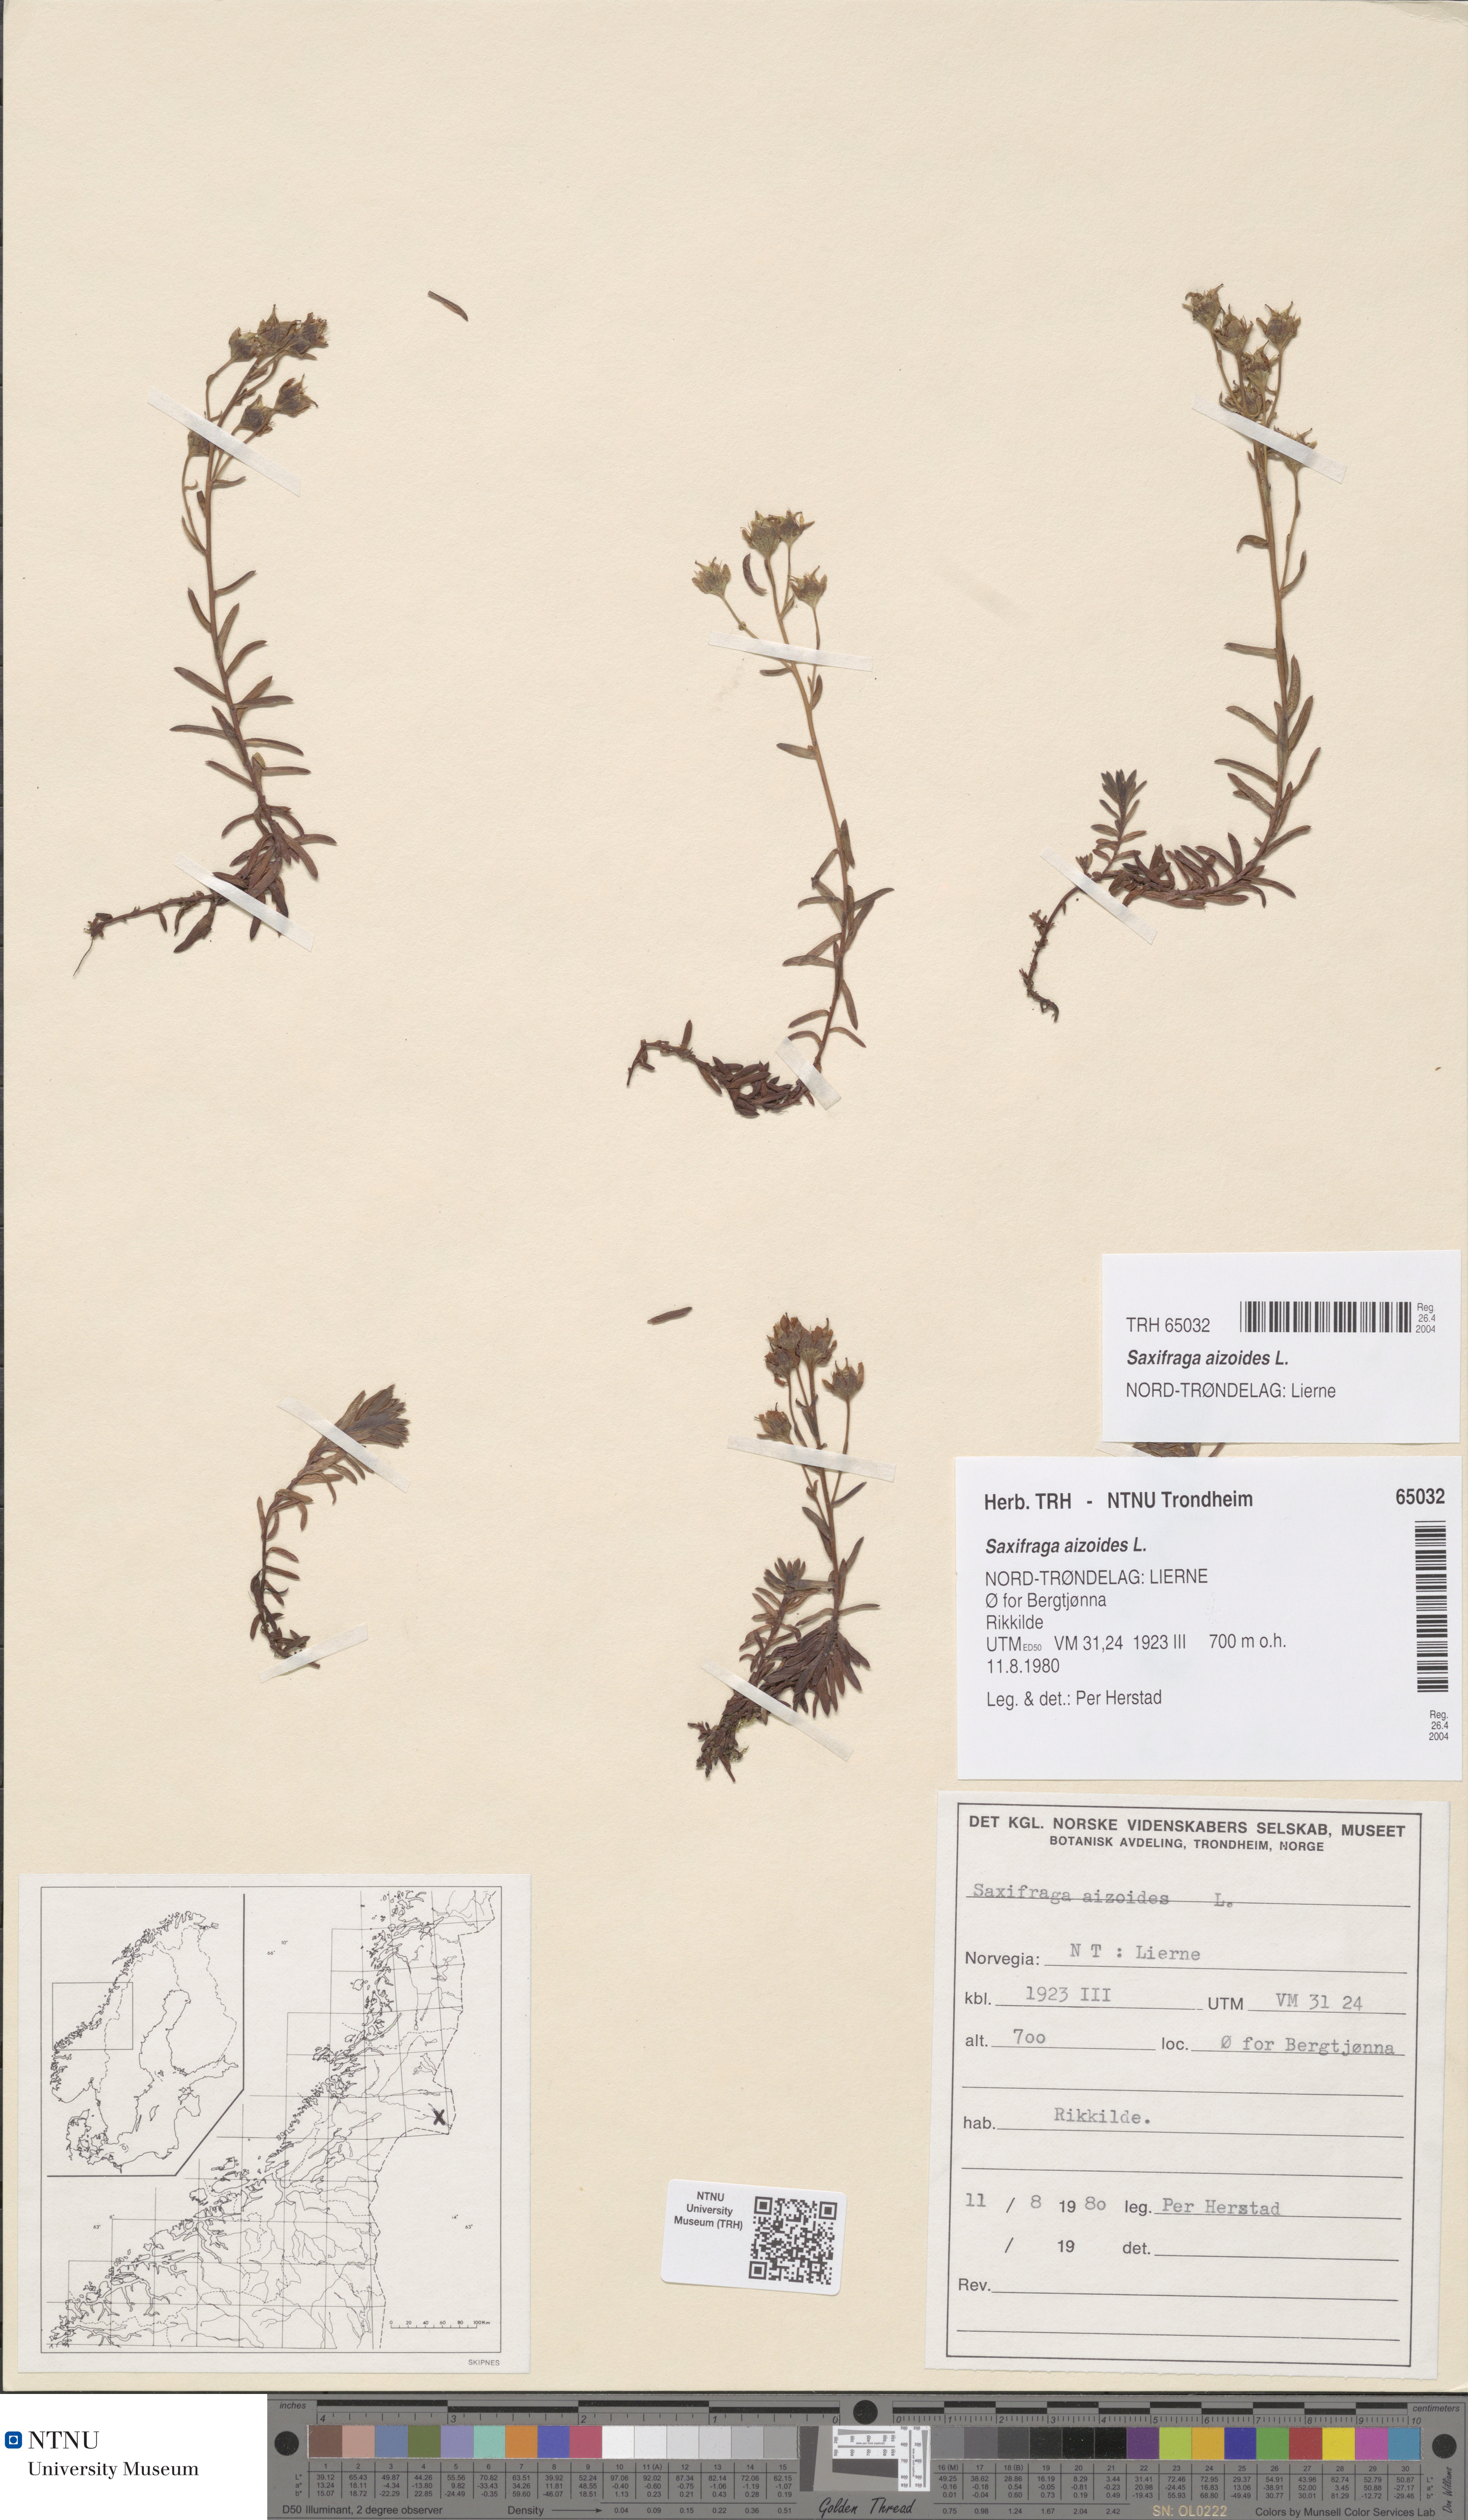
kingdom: Plantae
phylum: Tracheophyta
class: Magnoliopsida
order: Saxifragales
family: Saxifragaceae
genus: Saxifraga
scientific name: Saxifraga aizoides
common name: Yellow mountain saxifrage
